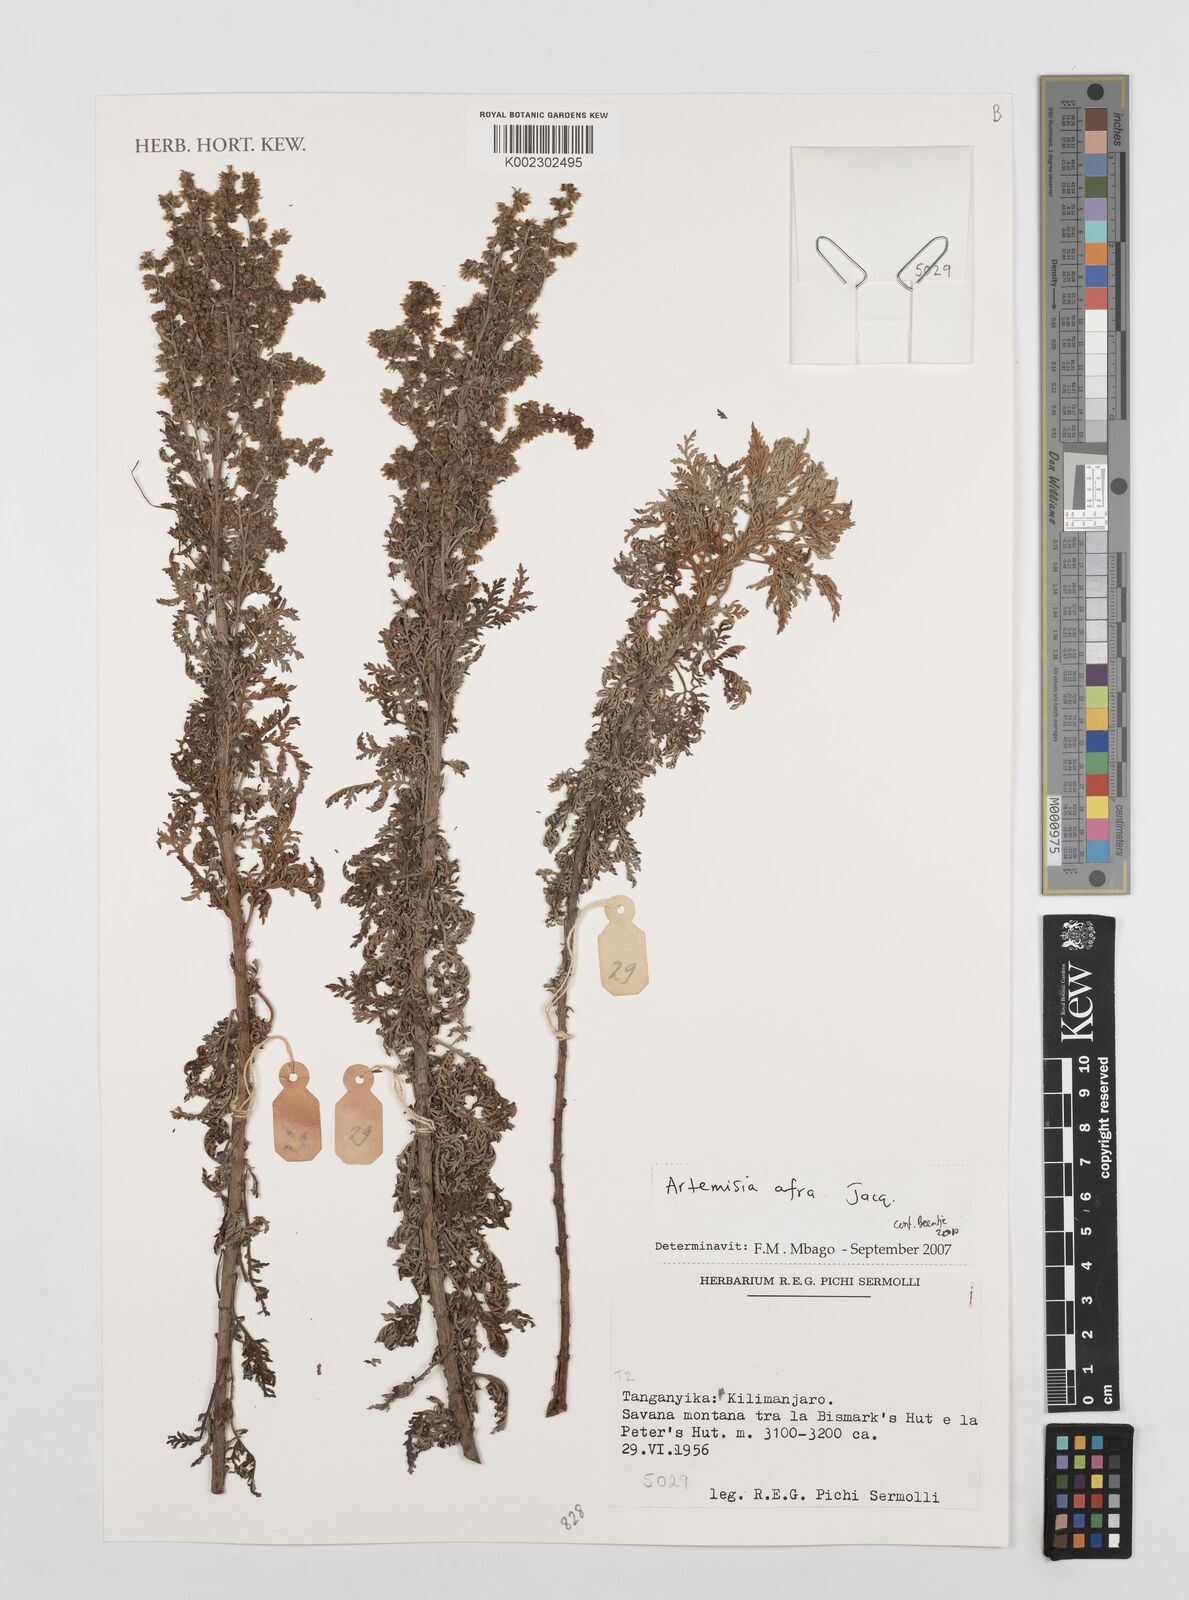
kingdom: Plantae
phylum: Tracheophyta
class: Magnoliopsida
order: Asterales
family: Asteraceae
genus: Artemisia
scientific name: Artemisia afra
